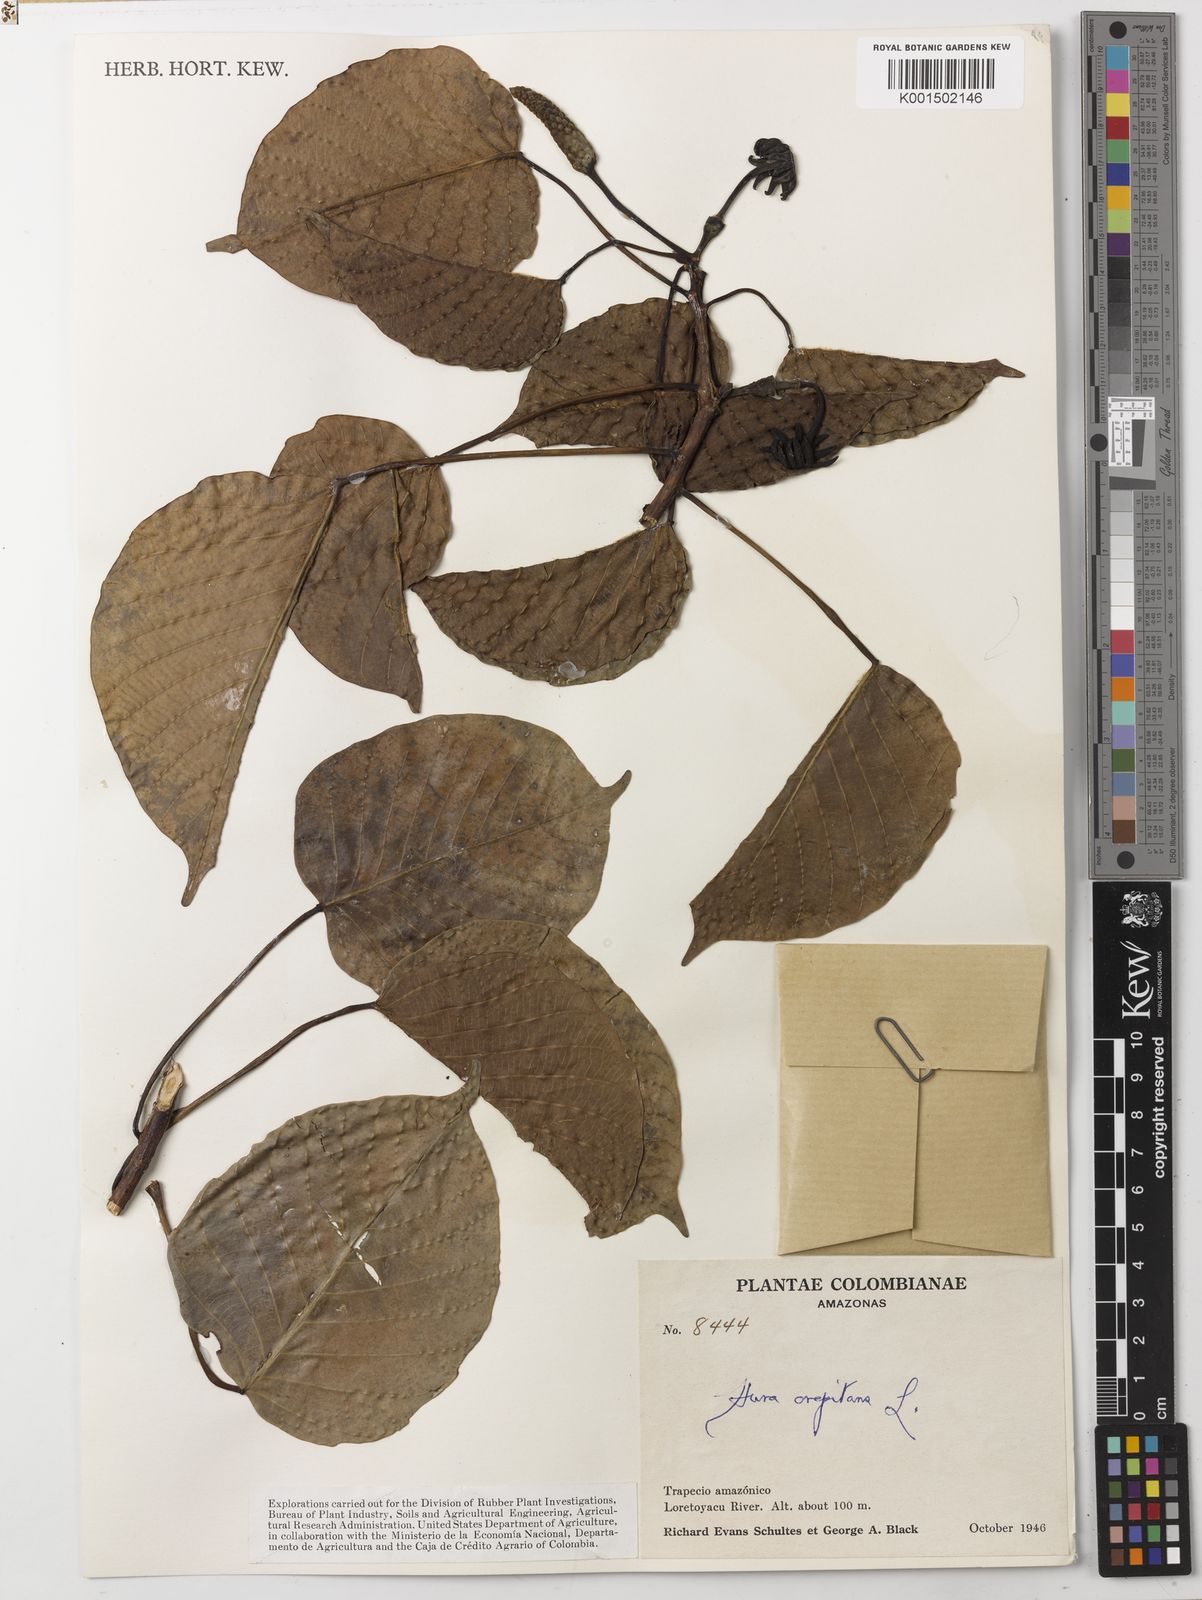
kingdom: Plantae
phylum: Tracheophyta
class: Magnoliopsida
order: Malpighiales
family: Euphorbiaceae
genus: Hura
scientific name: Hura crepitans
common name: Sandboxtree
